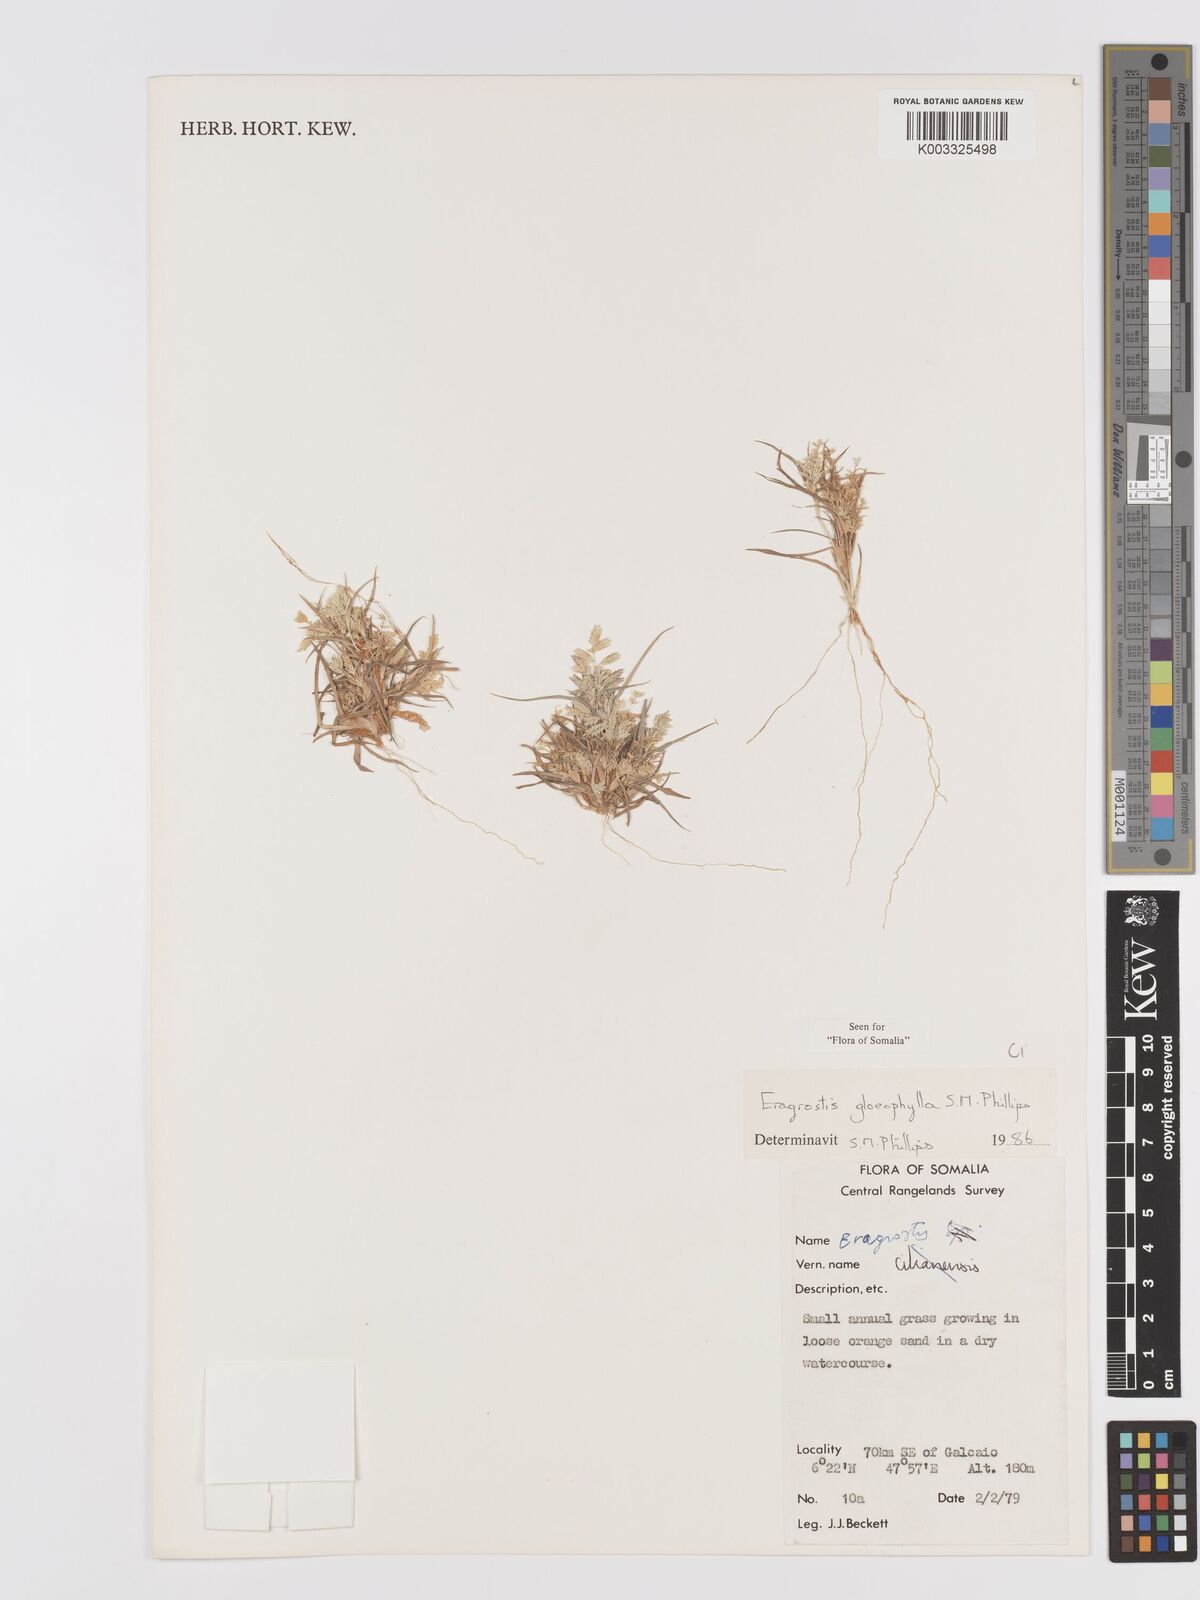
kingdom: Plantae
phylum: Tracheophyta
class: Liliopsida
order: Poales
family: Poaceae
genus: Eragrostis
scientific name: Eragrostis gloeophylla
